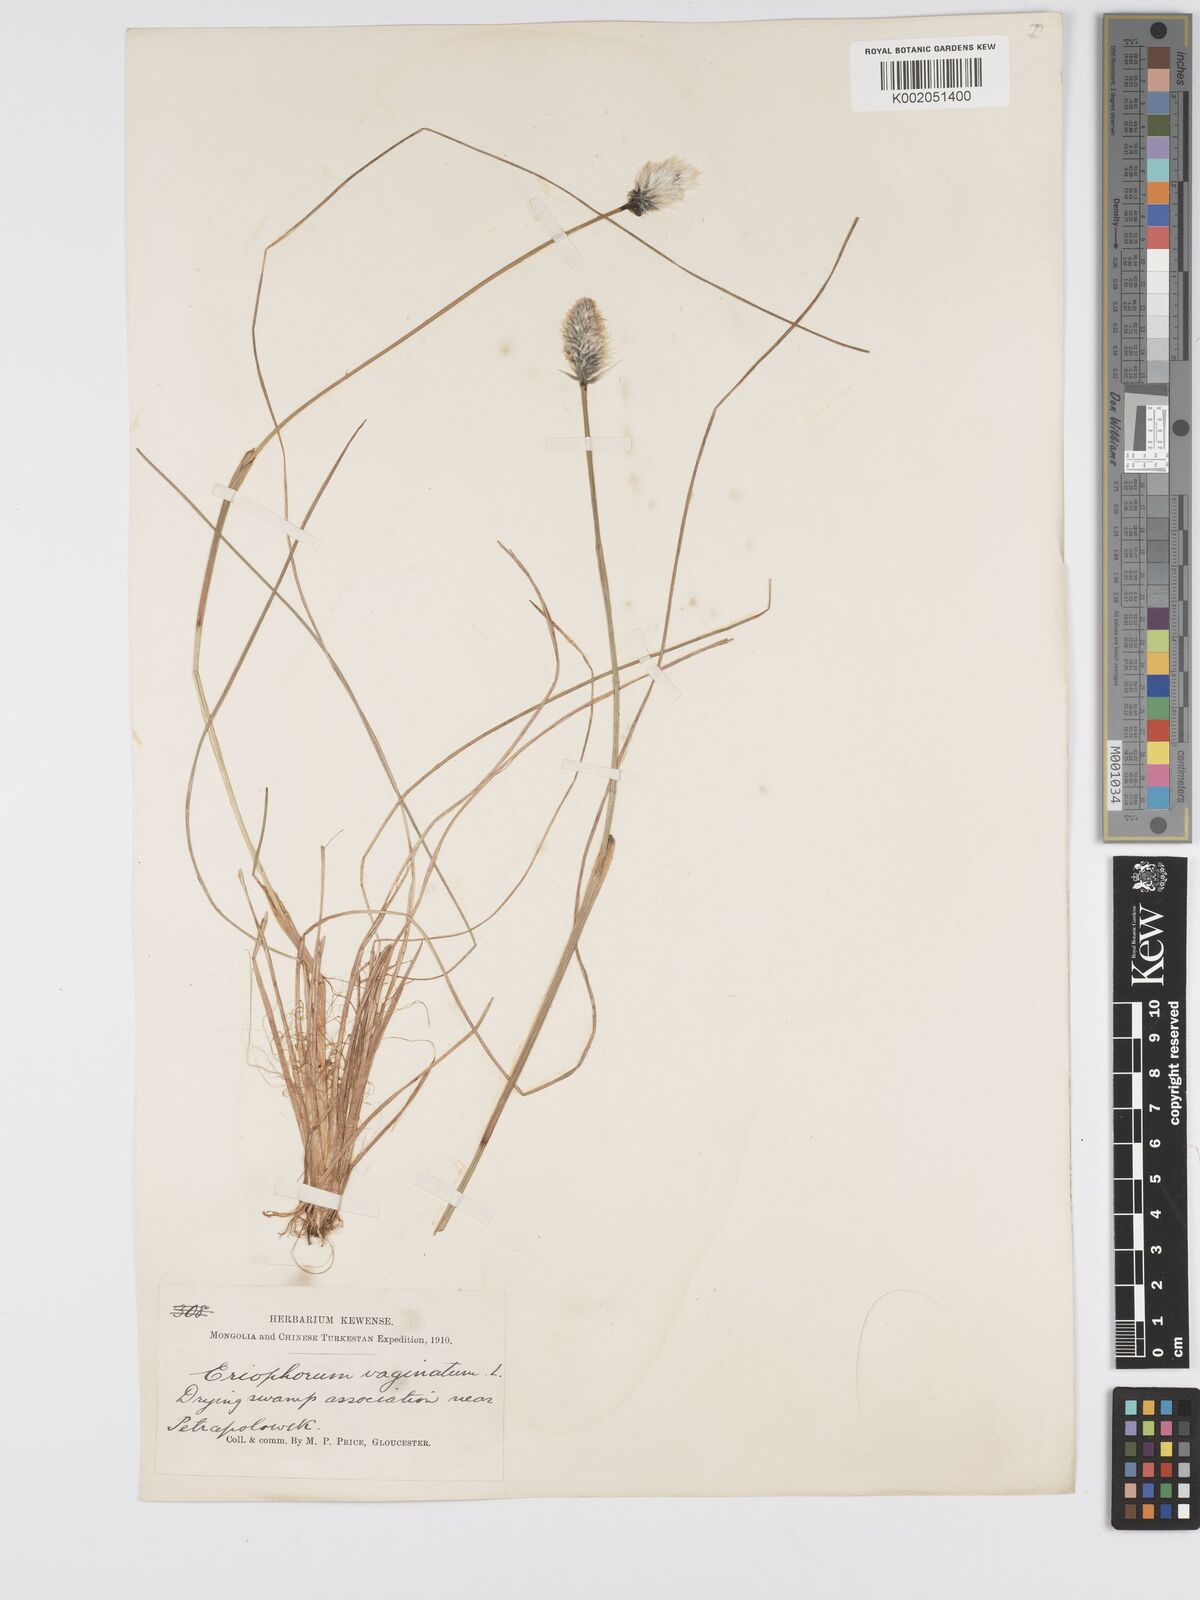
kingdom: Plantae
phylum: Tracheophyta
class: Liliopsida
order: Poales
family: Cyperaceae
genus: Eriophorum
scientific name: Eriophorum vaginatum
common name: Hare's-tail cottongrass
